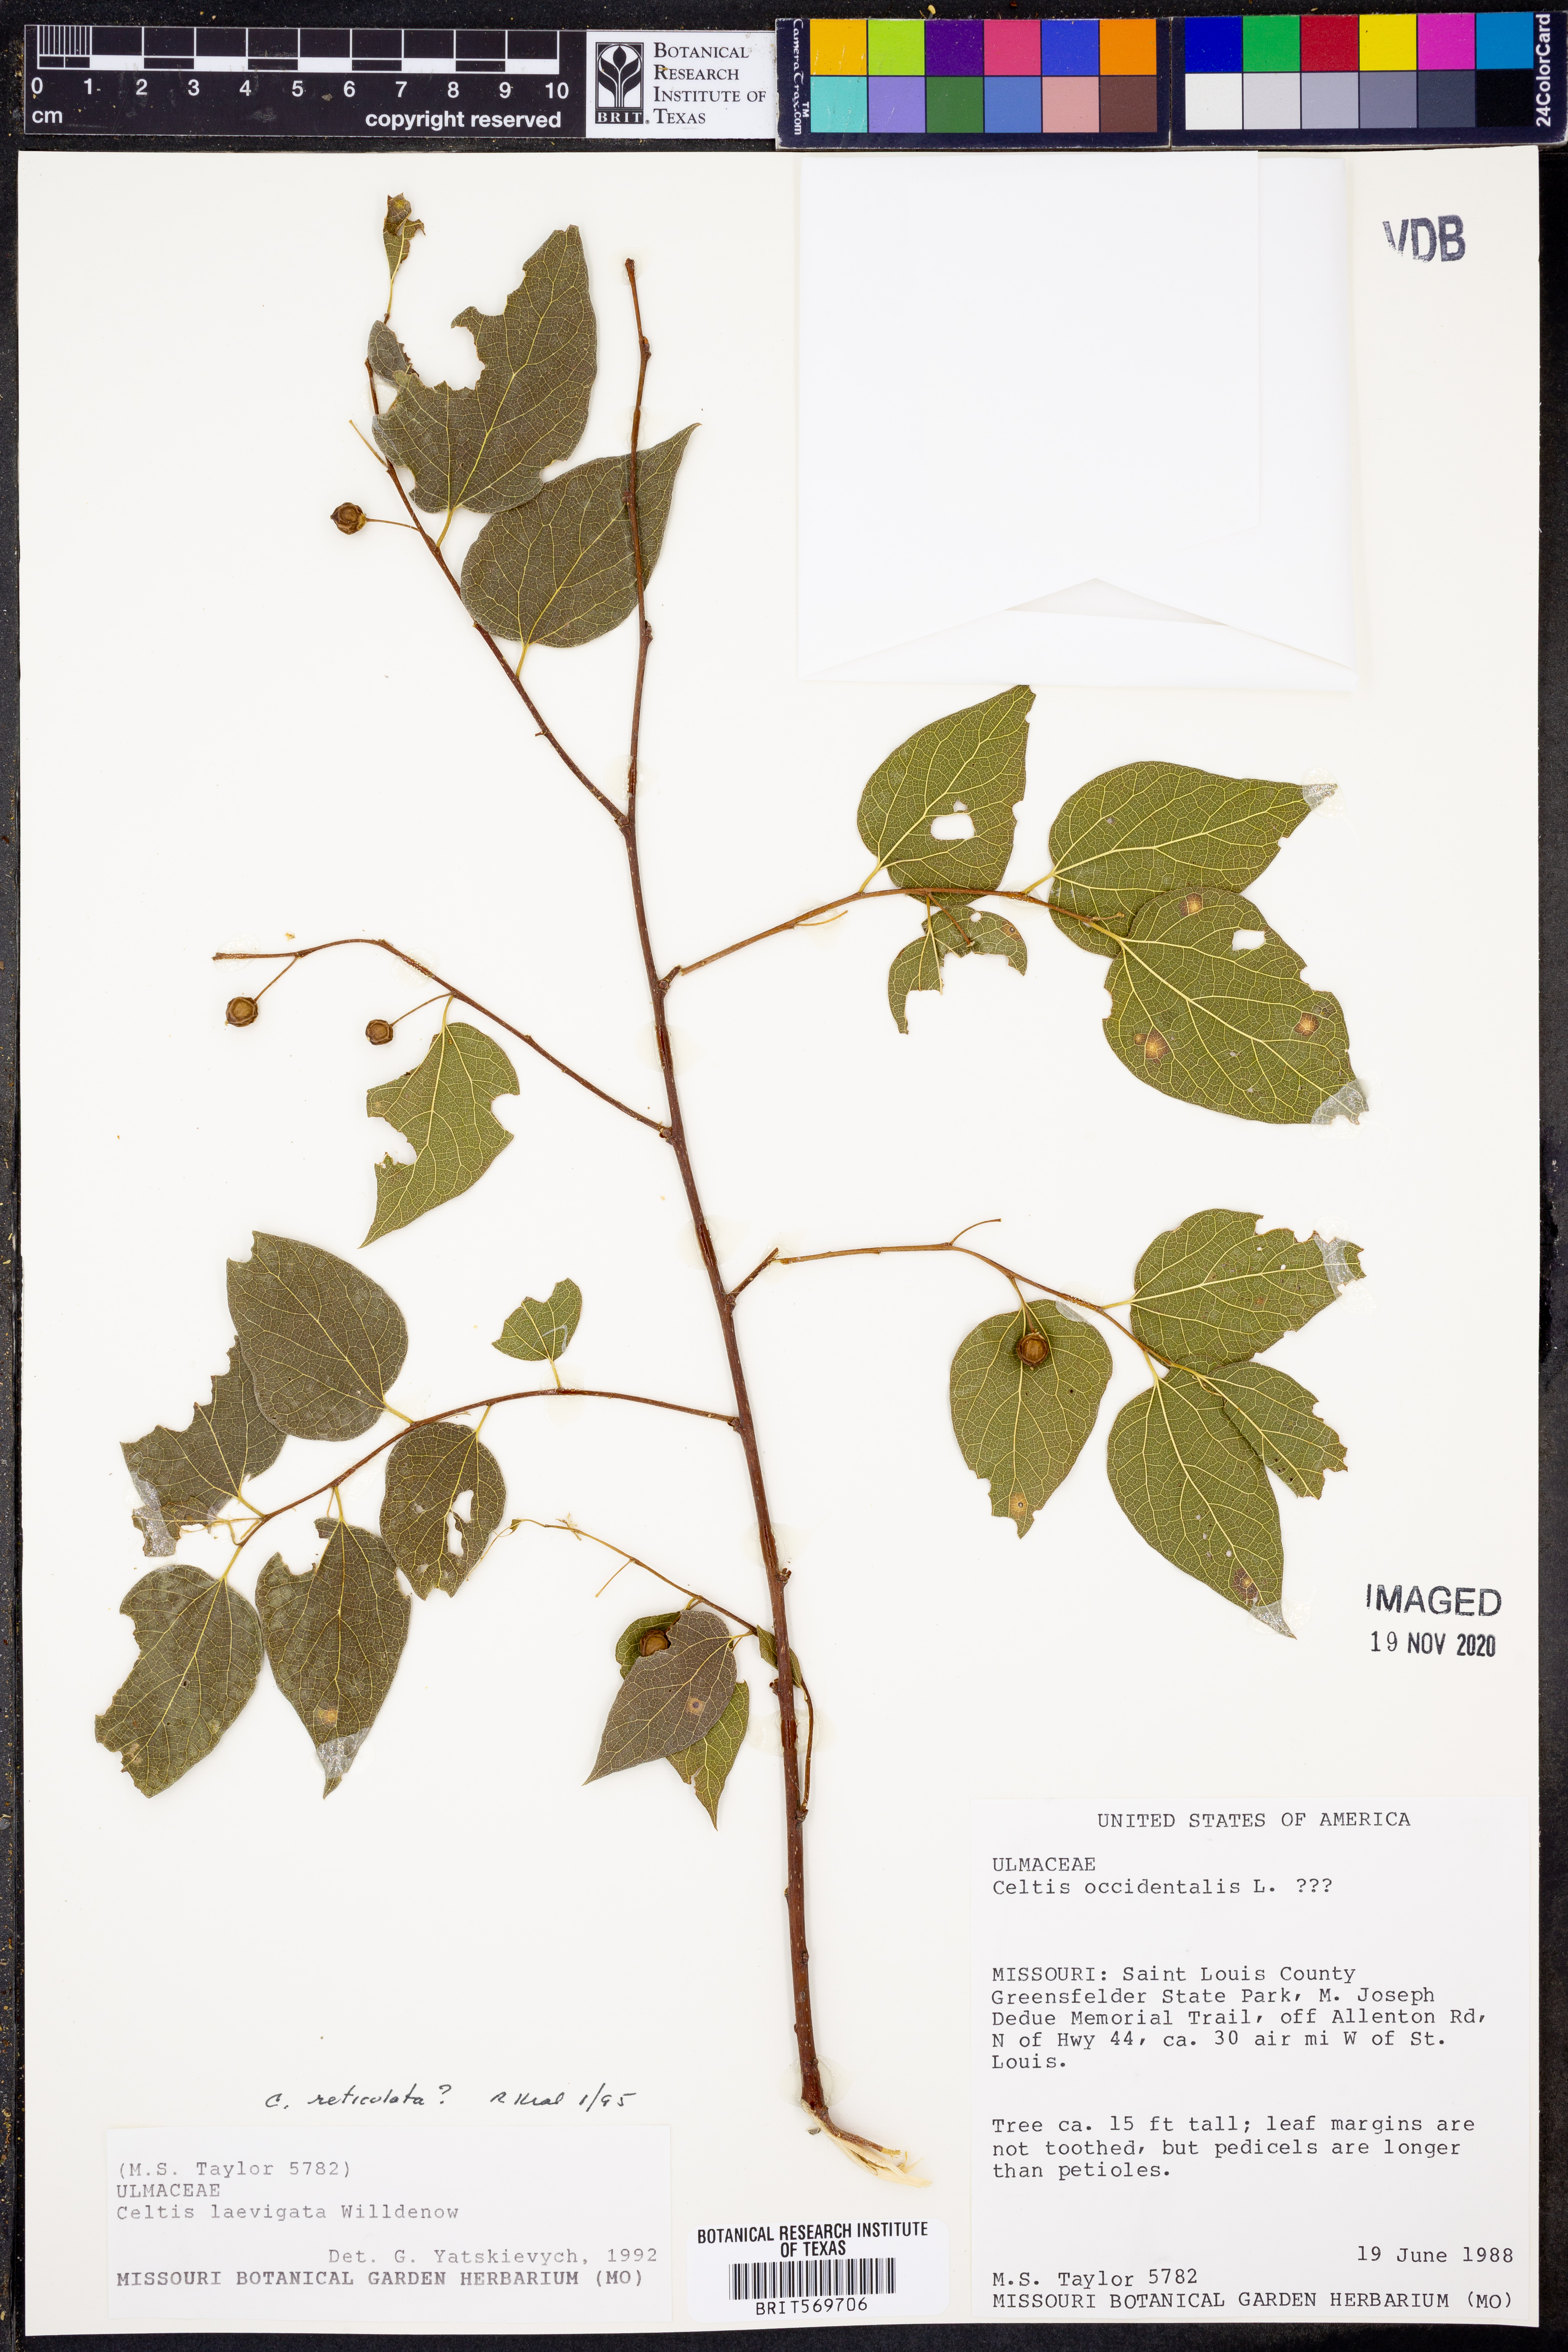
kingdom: Plantae
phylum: Tracheophyta
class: Magnoliopsida
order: Rosales
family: Cannabaceae
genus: Celtis
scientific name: Celtis occidentalis
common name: Common hackberry
